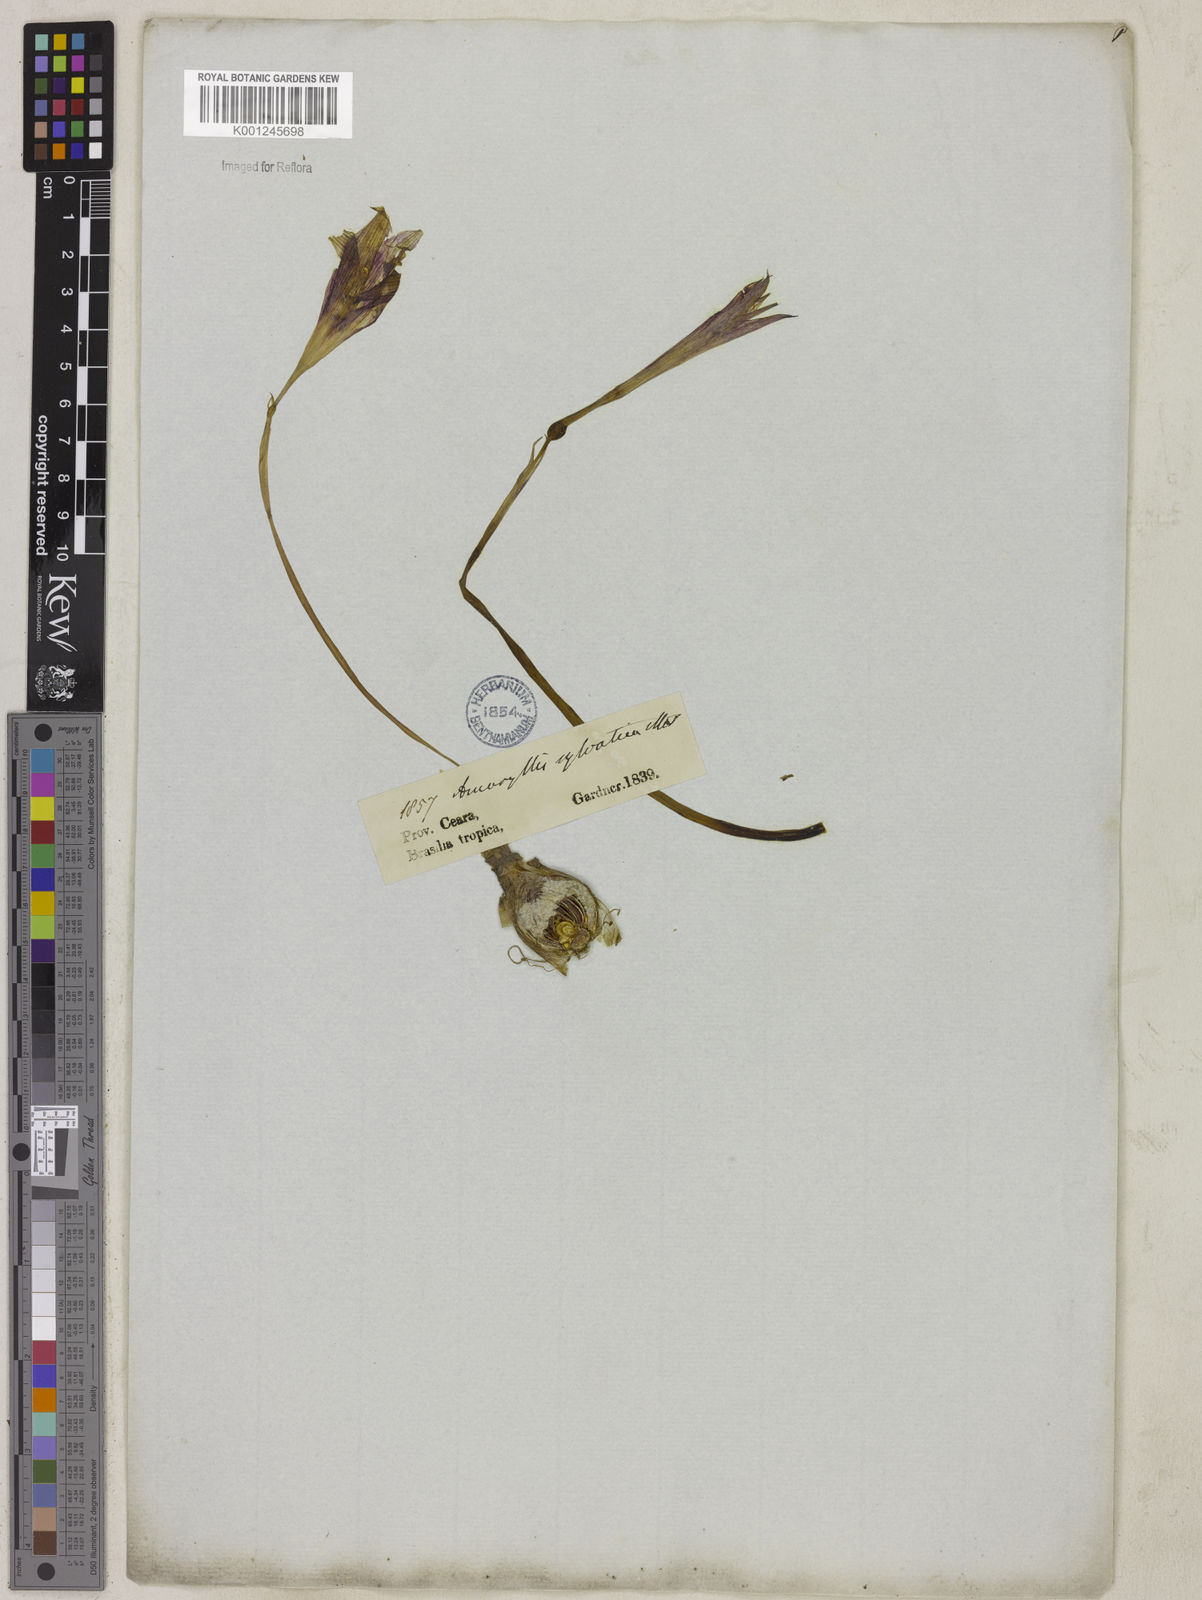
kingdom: Plantae
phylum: Tracheophyta
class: Liliopsida
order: Asparagales
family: Amaryllidaceae
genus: Zephyranthes
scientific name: Zephyranthes sylvatica
